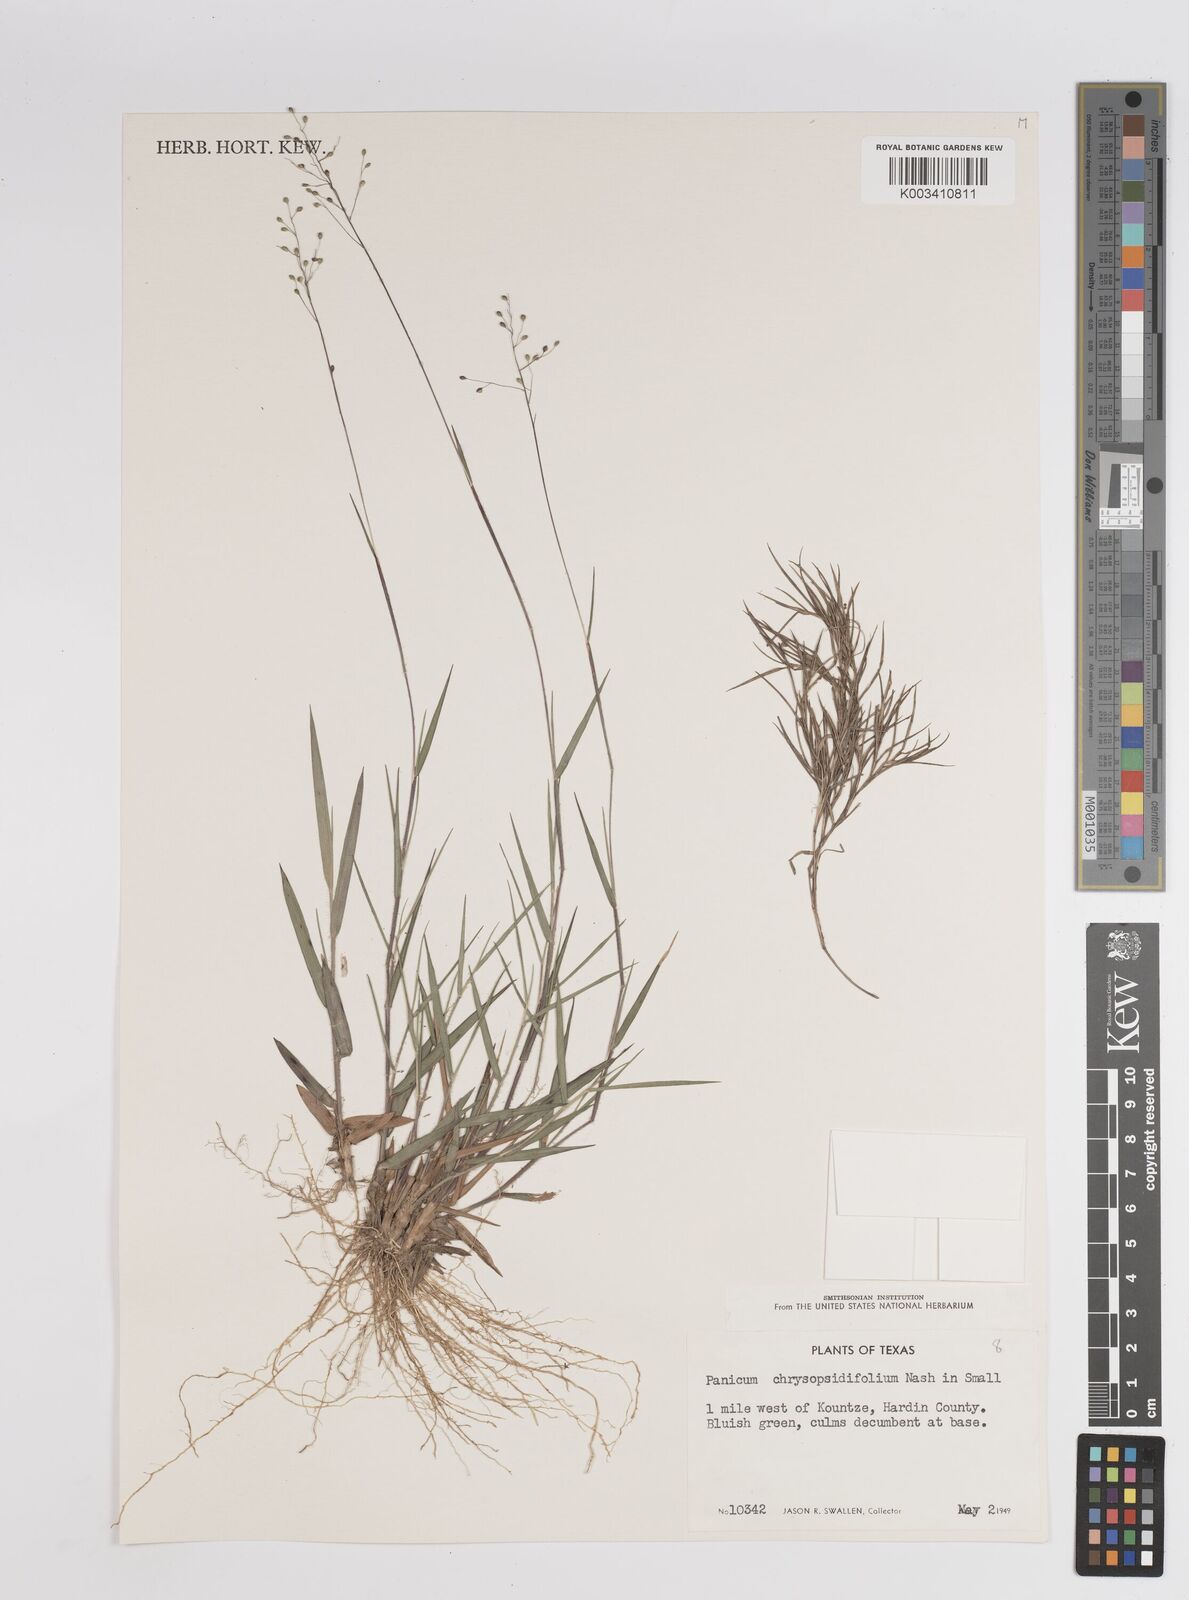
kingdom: Plantae
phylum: Tracheophyta
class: Liliopsida
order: Poales
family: Poaceae
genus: Dichanthelium
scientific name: Dichanthelium acuminatum
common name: Hairy panic grass
